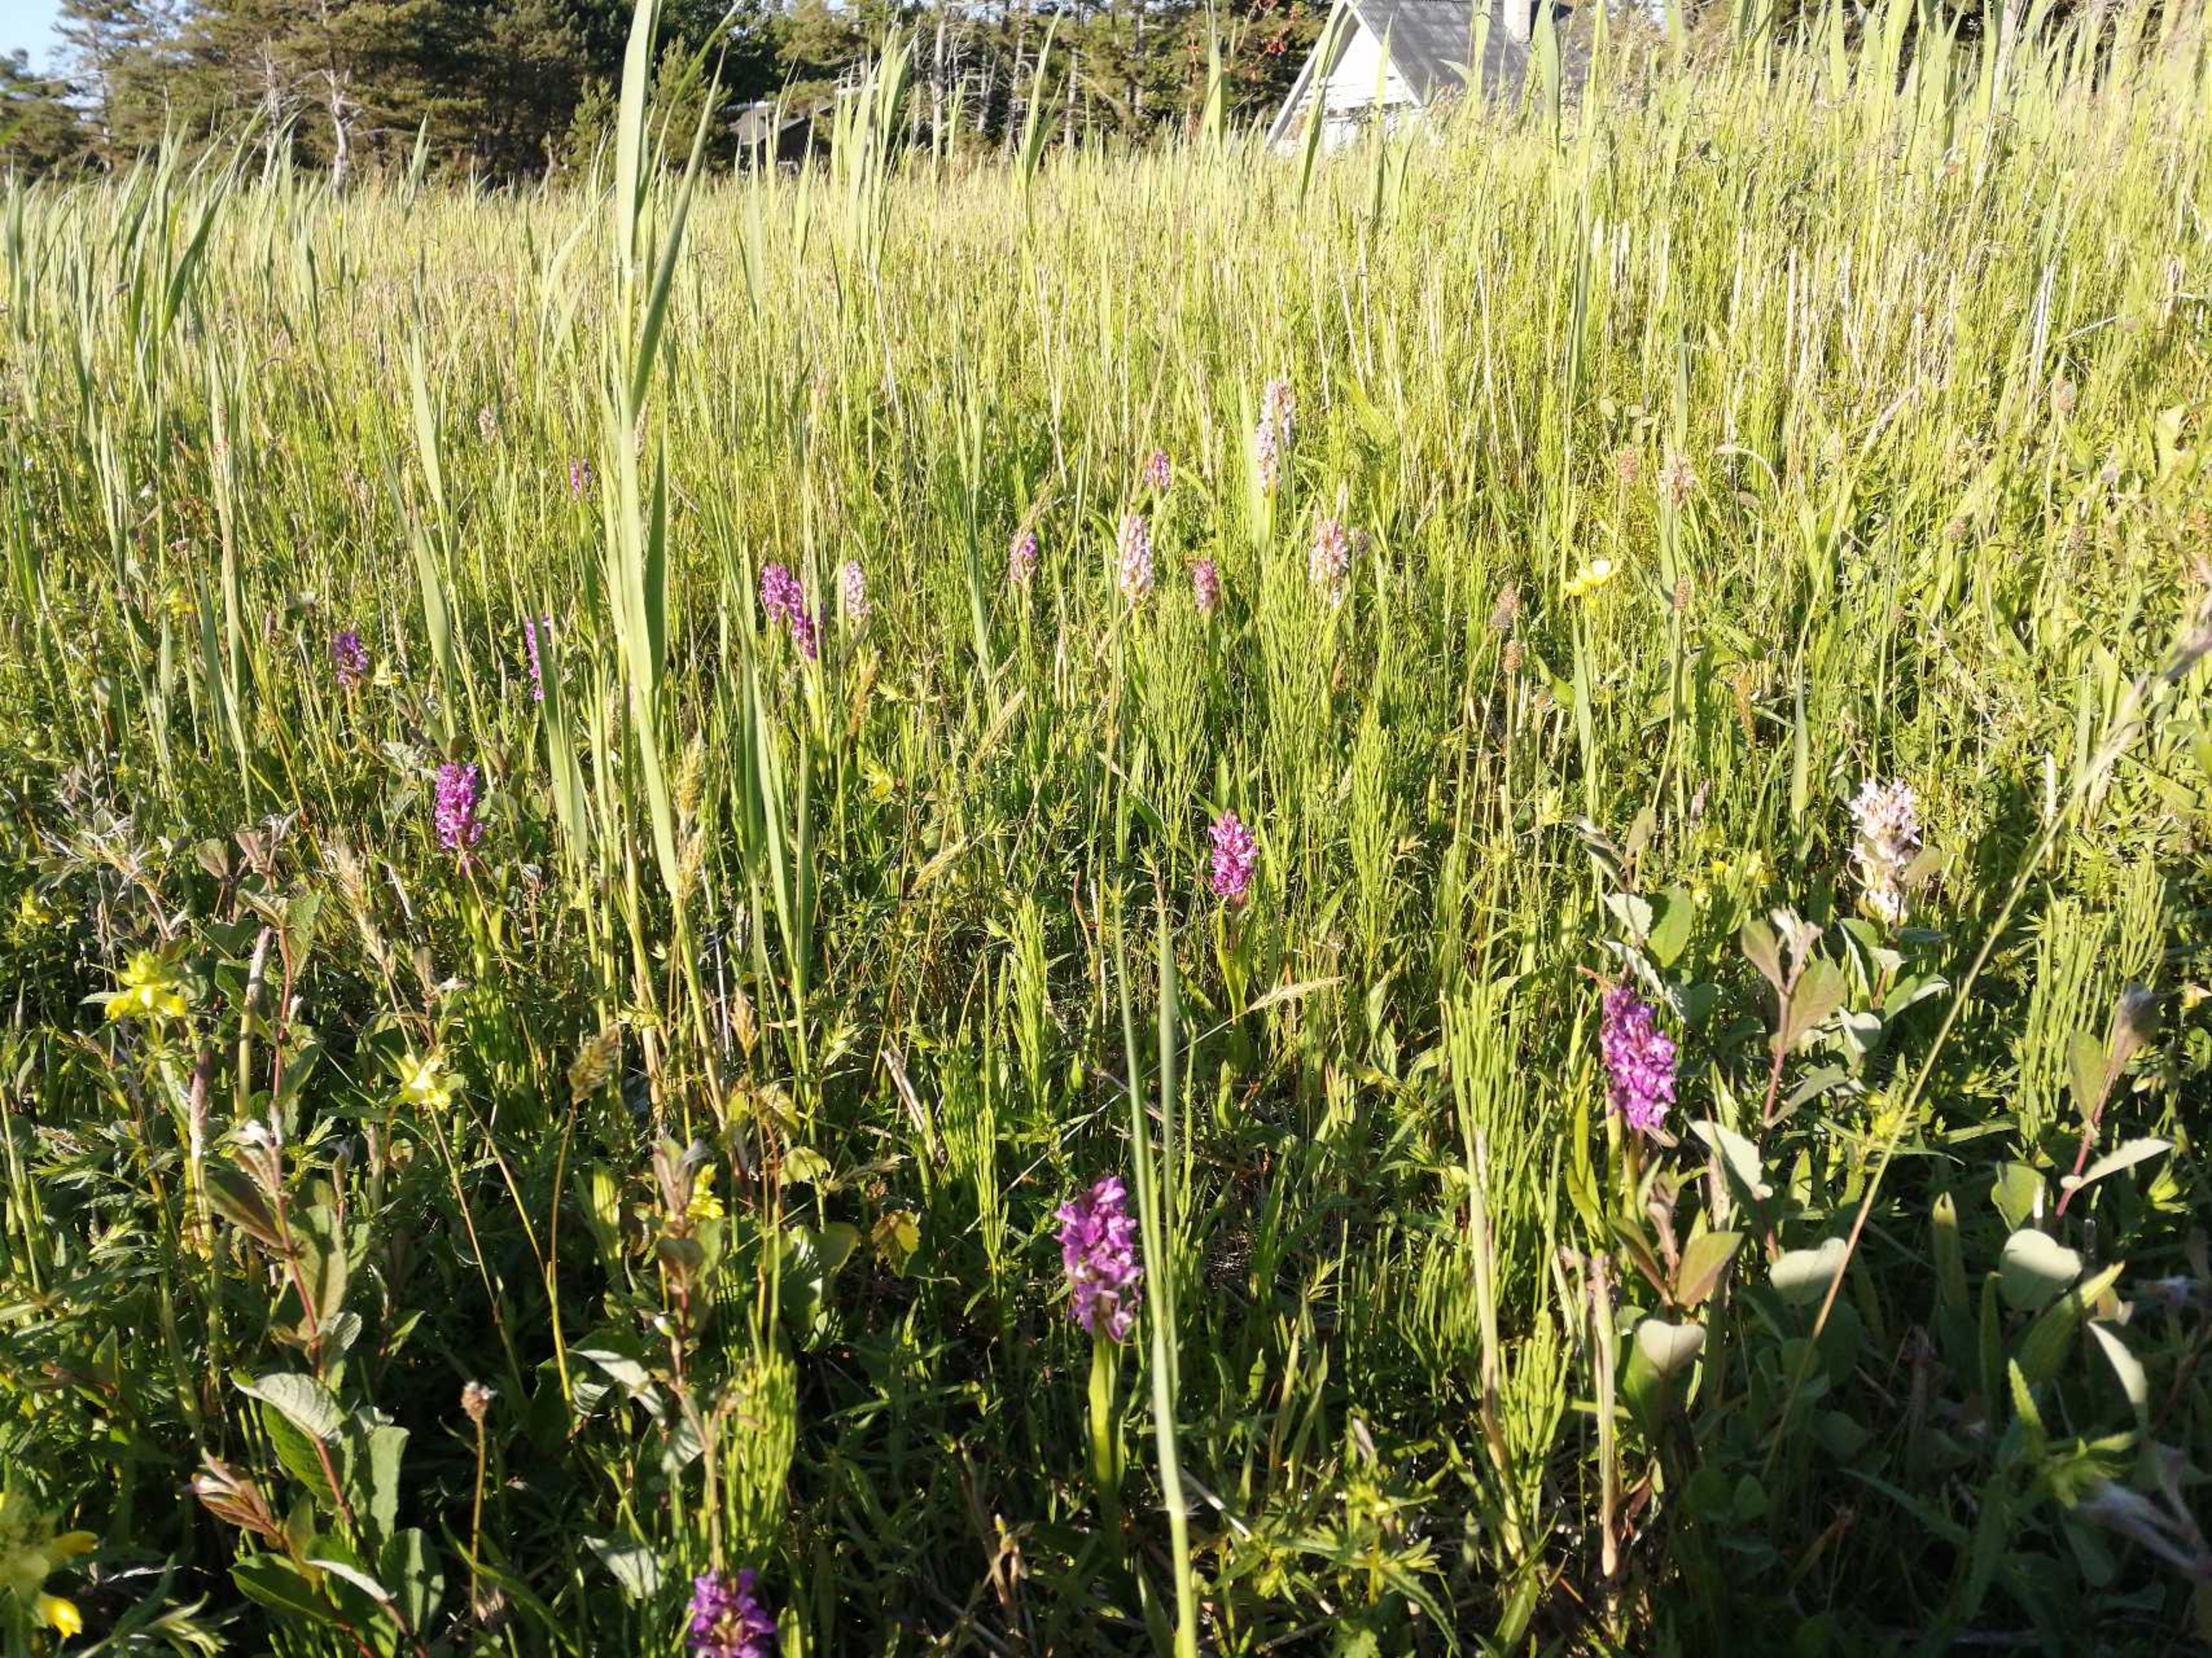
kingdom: Plantae
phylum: Tracheophyta
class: Liliopsida
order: Asparagales
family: Orchidaceae
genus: Dactylorhiza
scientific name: Dactylorhiza incarnata
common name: Kødfarvet gøgeurt
